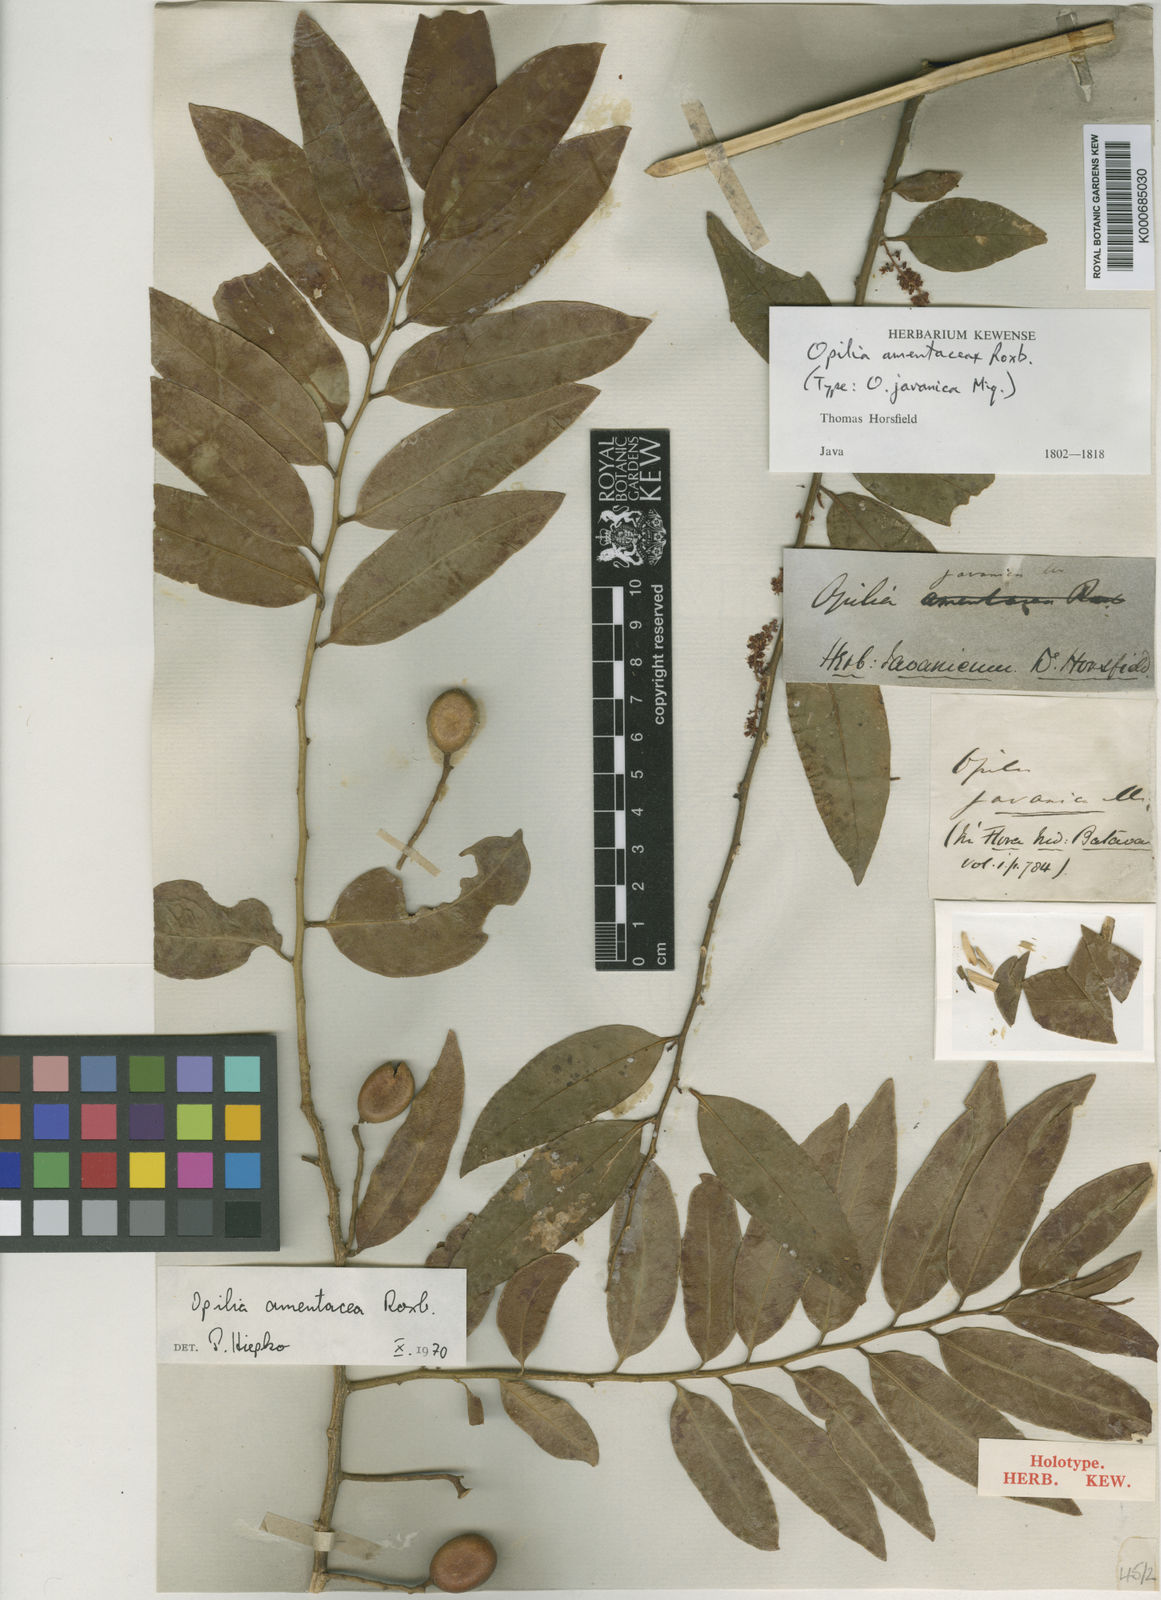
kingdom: Plantae
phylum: Tracheophyta
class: Magnoliopsida
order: Santalales
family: Opiliaceae
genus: Opilia
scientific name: Opilia amentacea
